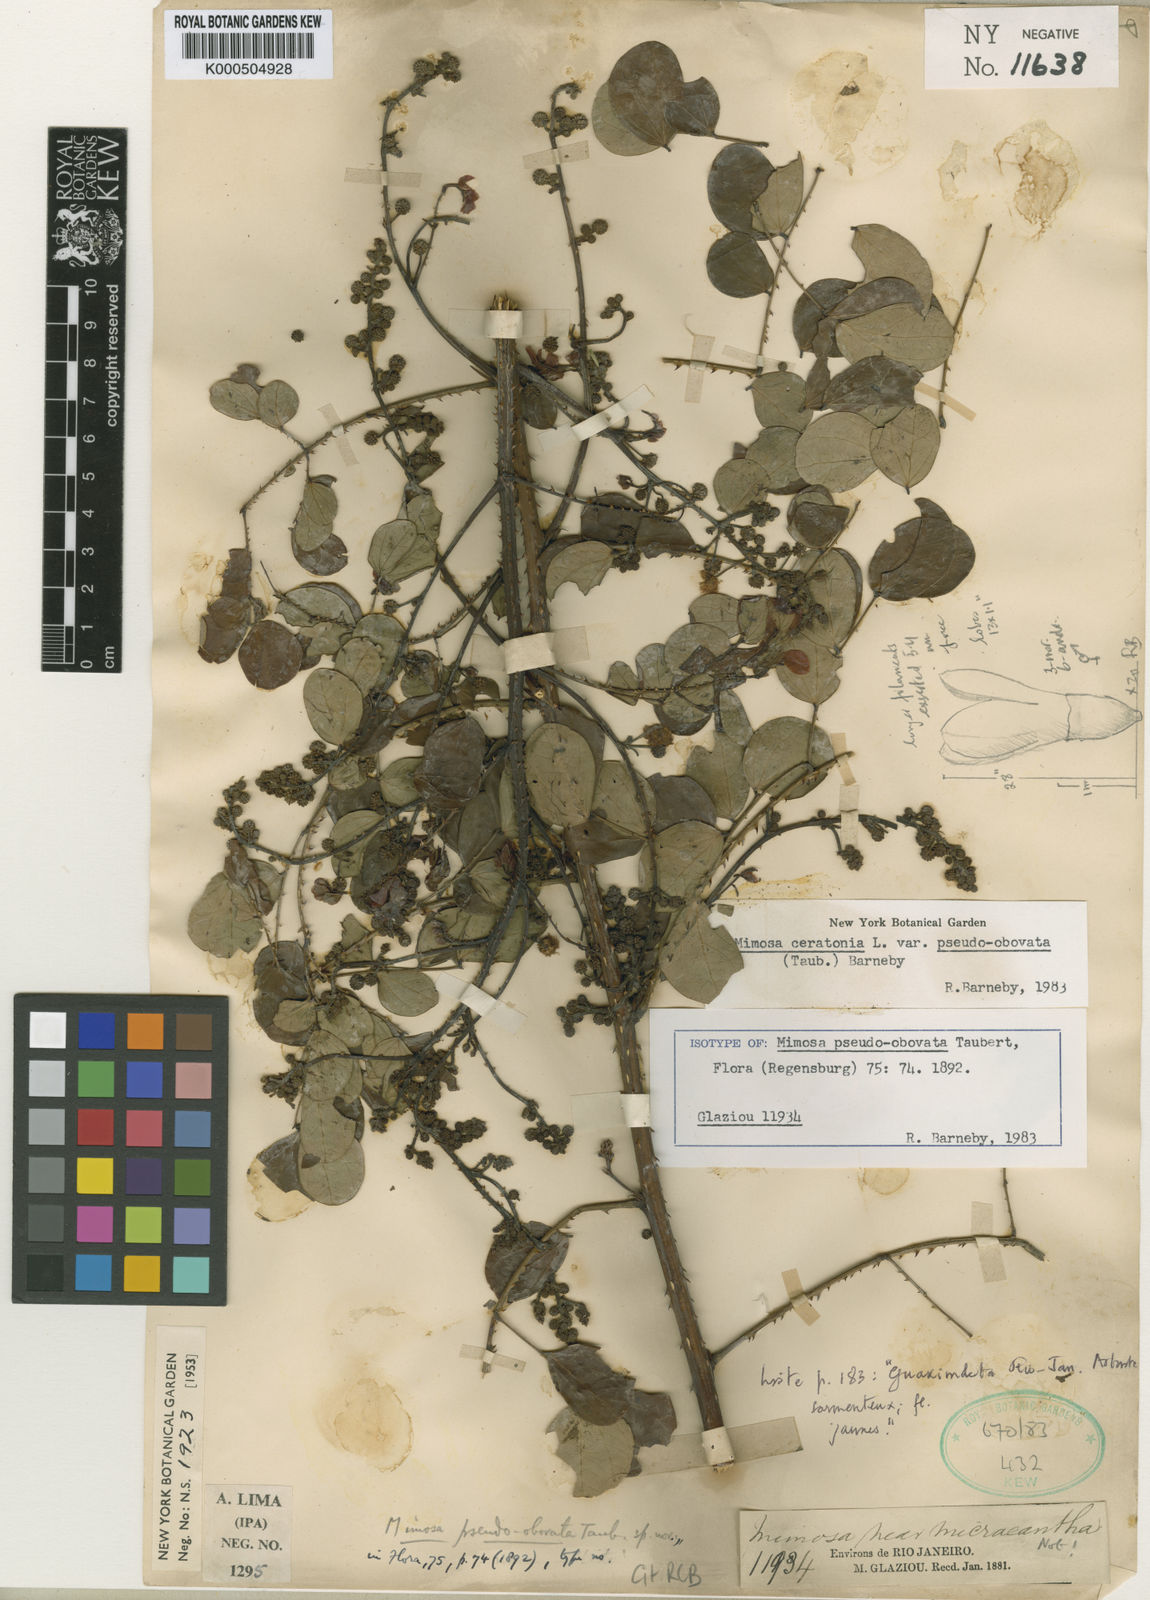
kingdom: Plantae
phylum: Tracheophyta
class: Magnoliopsida
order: Fabales
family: Fabaceae
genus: Mimosa
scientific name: Mimosa ceratonia
